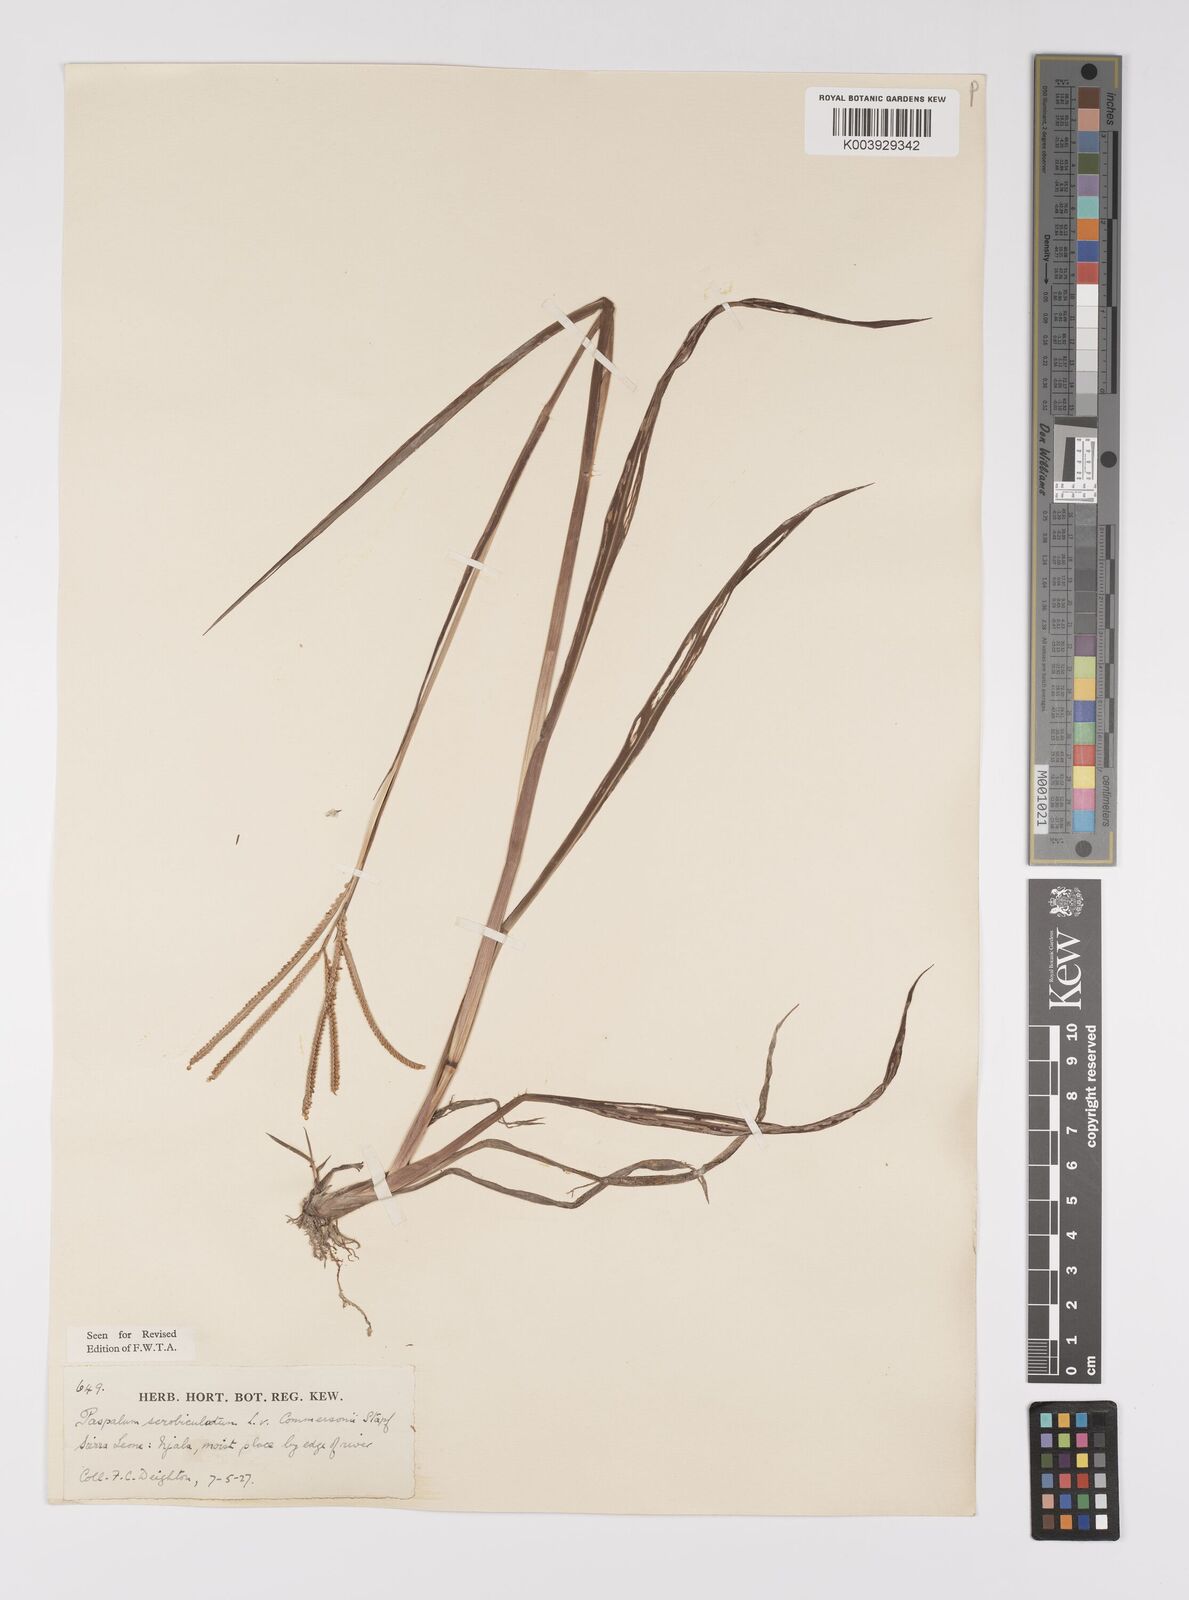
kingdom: Plantae
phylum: Tracheophyta
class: Liliopsida
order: Poales
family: Poaceae
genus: Paspalum
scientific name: Paspalum scrobiculatum
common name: Kodo millet
